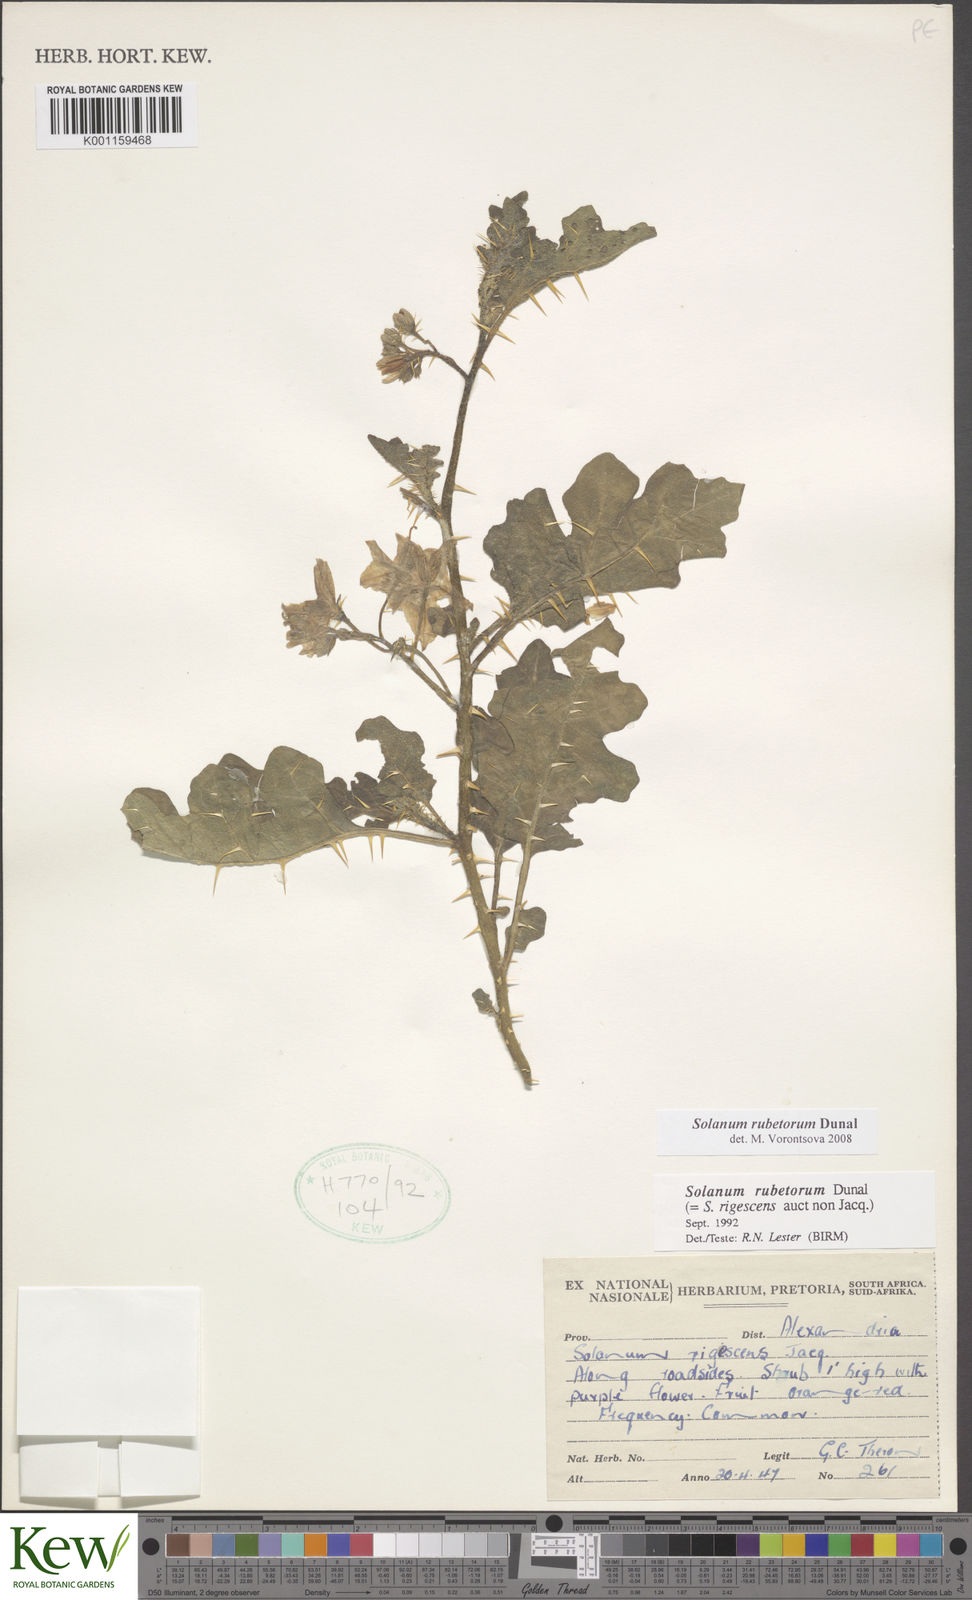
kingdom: Plantae
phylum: Tracheophyta
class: Magnoliopsida
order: Solanales
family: Solanaceae
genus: Solanum
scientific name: Solanum rubetorum
